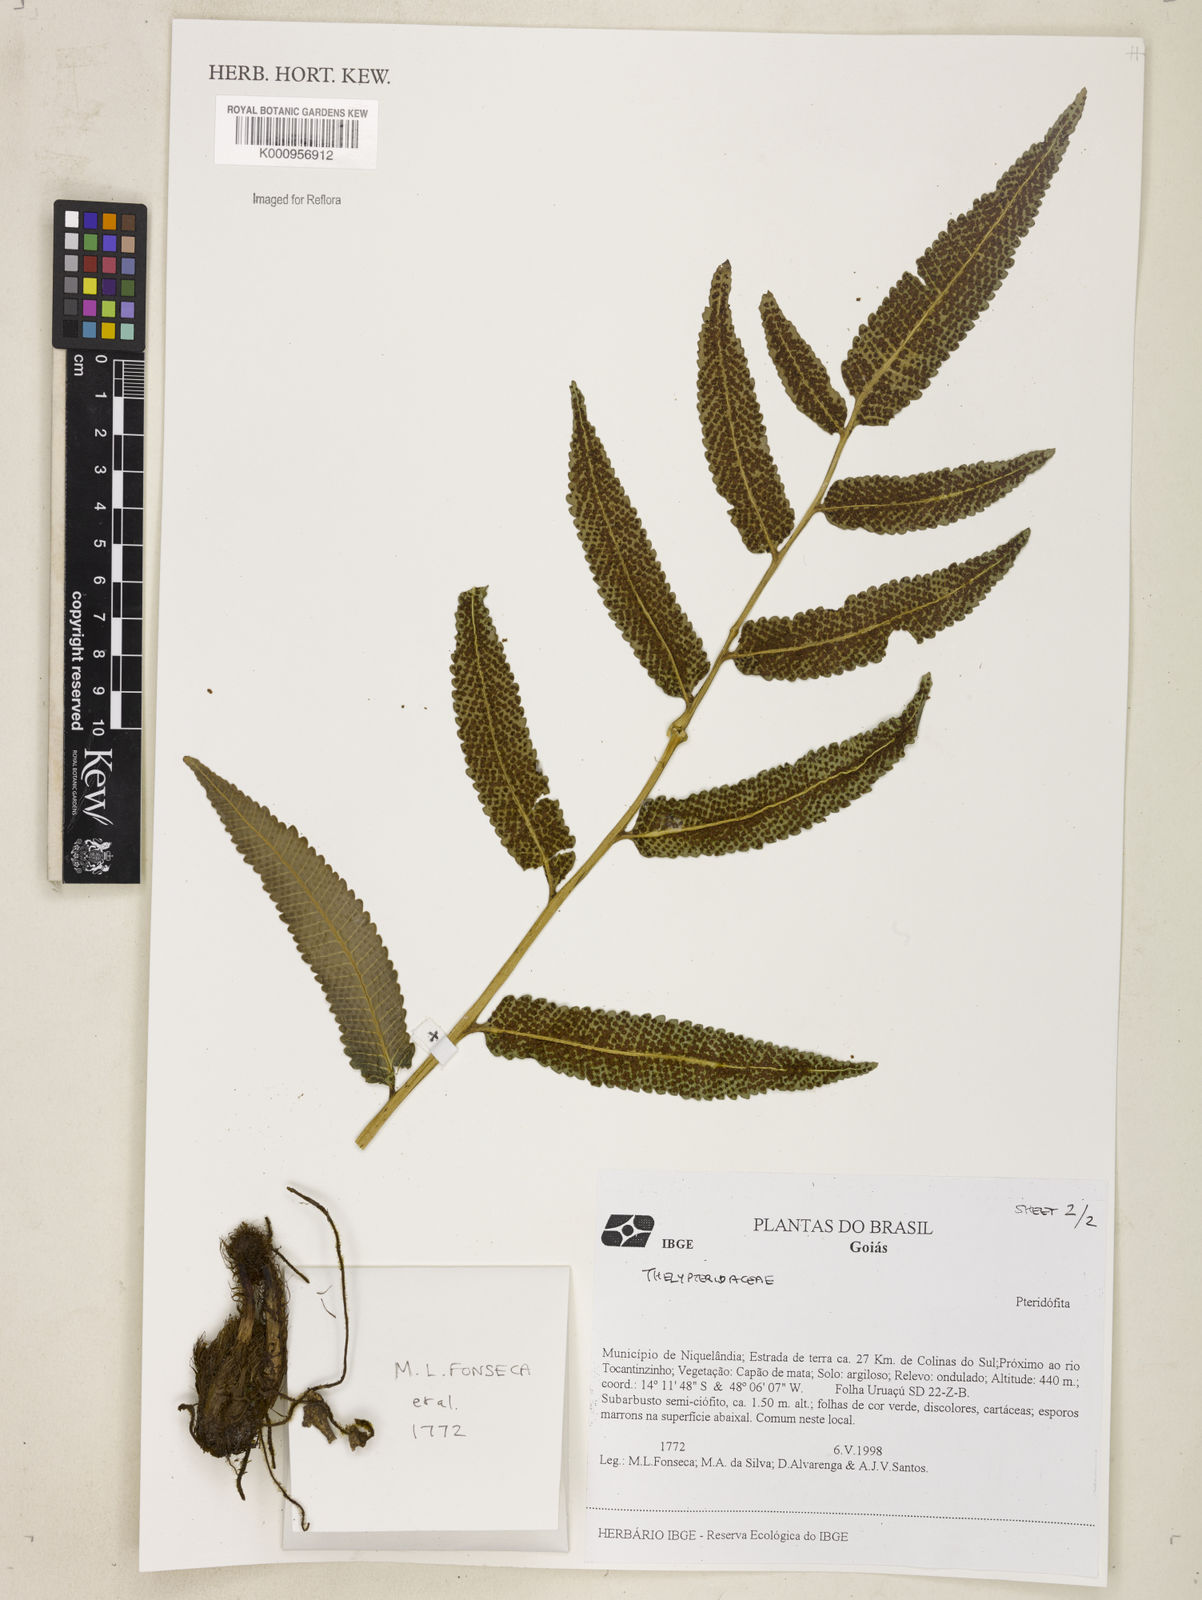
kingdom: Plantae
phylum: Tracheophyta
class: Polypodiopsida
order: Polypodiales
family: Thelypteridaceae
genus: Meniscium
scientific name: Meniscium
